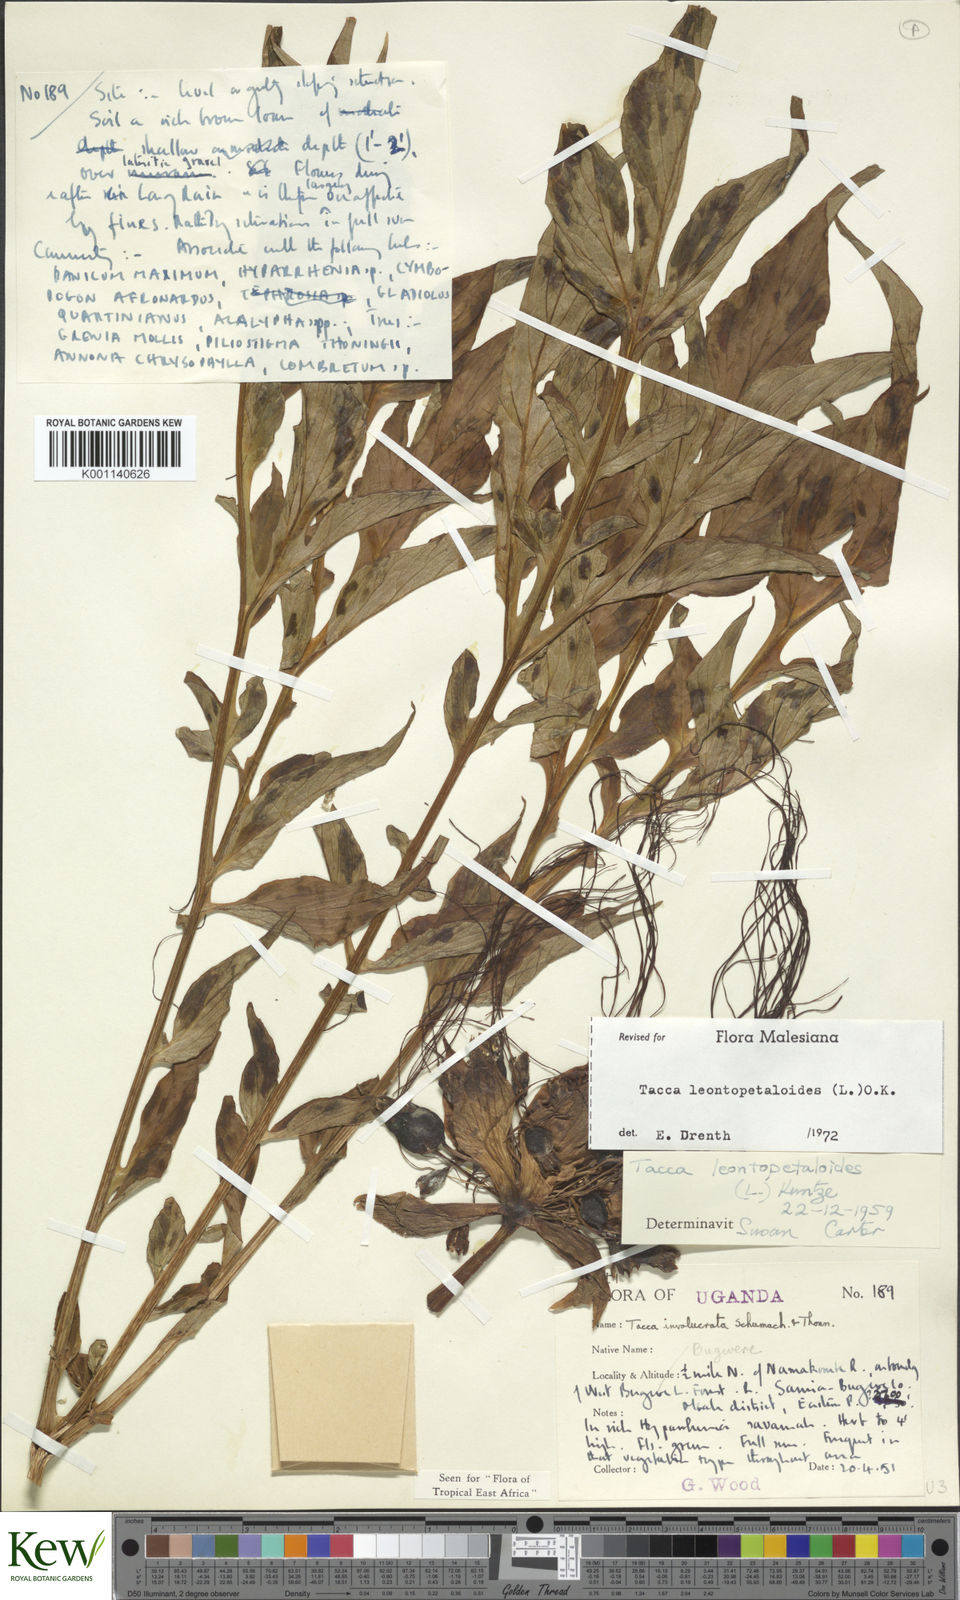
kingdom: Plantae
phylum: Tracheophyta
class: Liliopsida
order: Dioscoreales
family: Dioscoreaceae
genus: Tacca
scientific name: Tacca leontopetaloides
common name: Arrowroot
